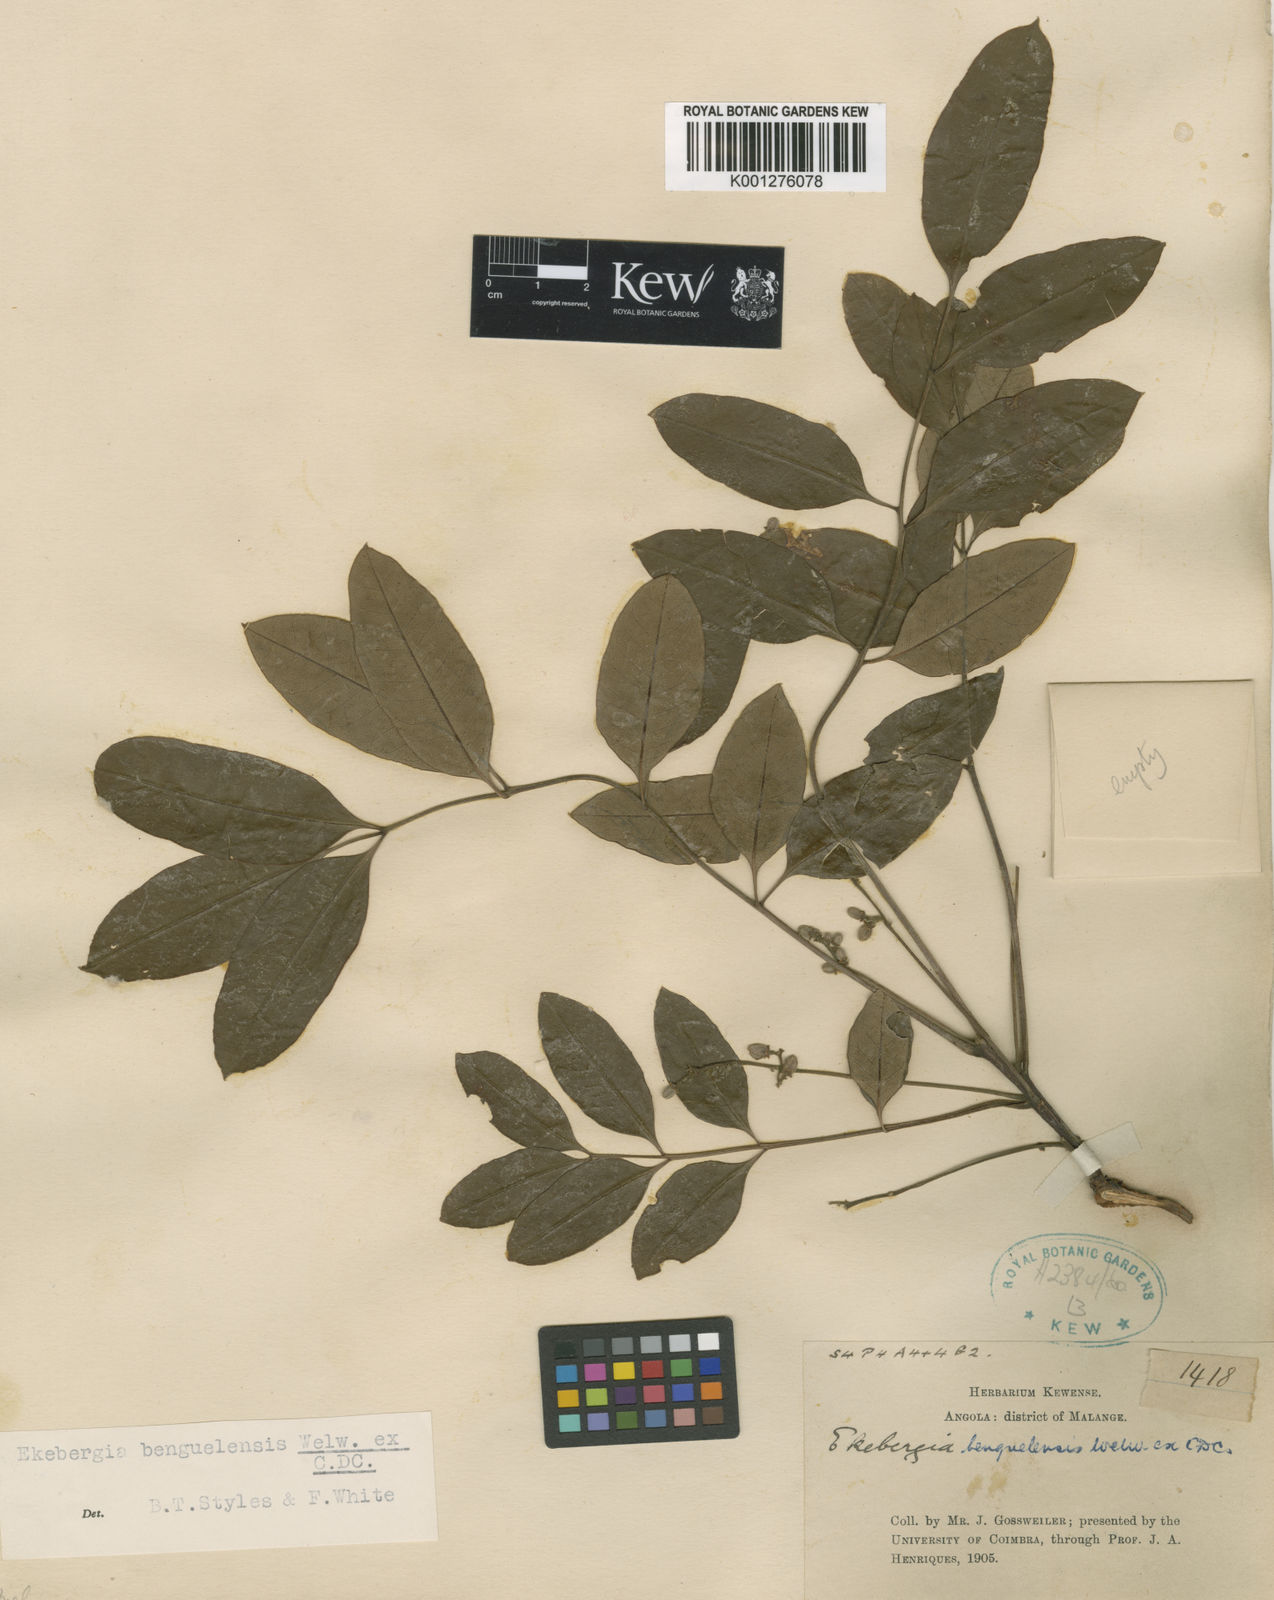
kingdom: Plantae
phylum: Tracheophyta
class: Magnoliopsida
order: Sapindales
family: Meliaceae
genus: Ekebergia
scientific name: Ekebergia benguelensis
